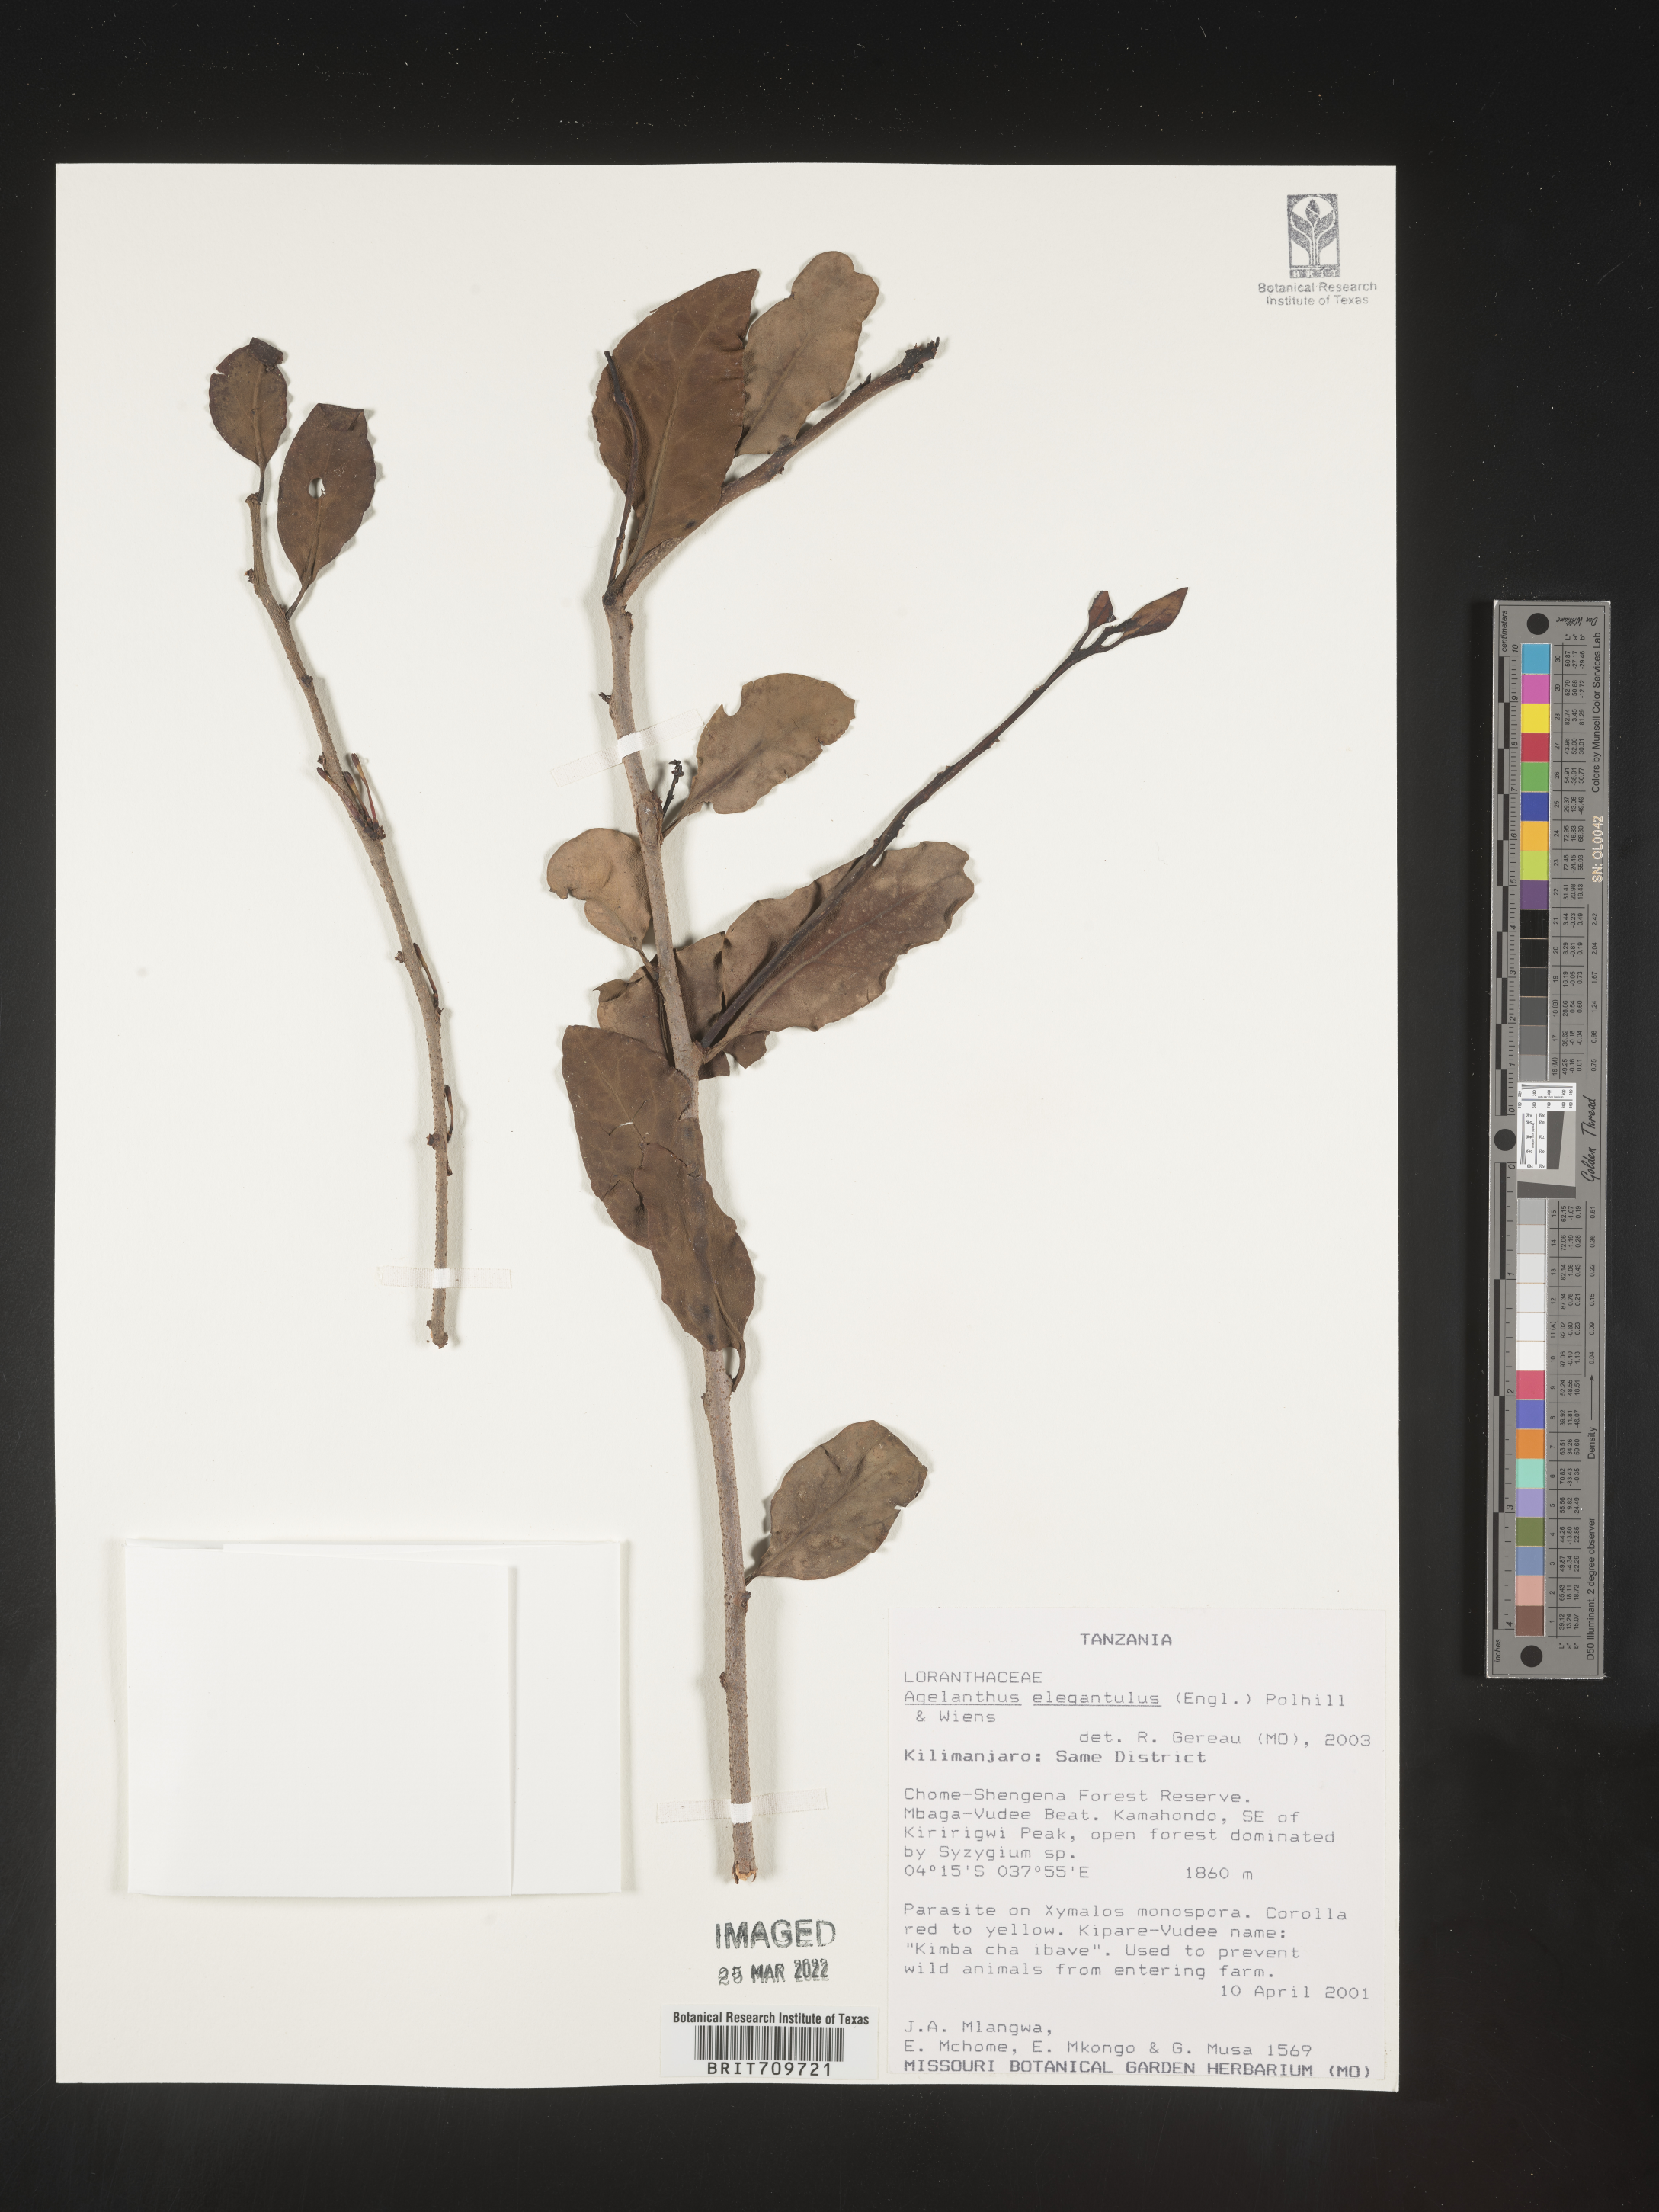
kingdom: Plantae
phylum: Tracheophyta
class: Magnoliopsida
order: Santalales
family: Loranthaceae
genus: Agelanthus
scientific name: Agelanthus
